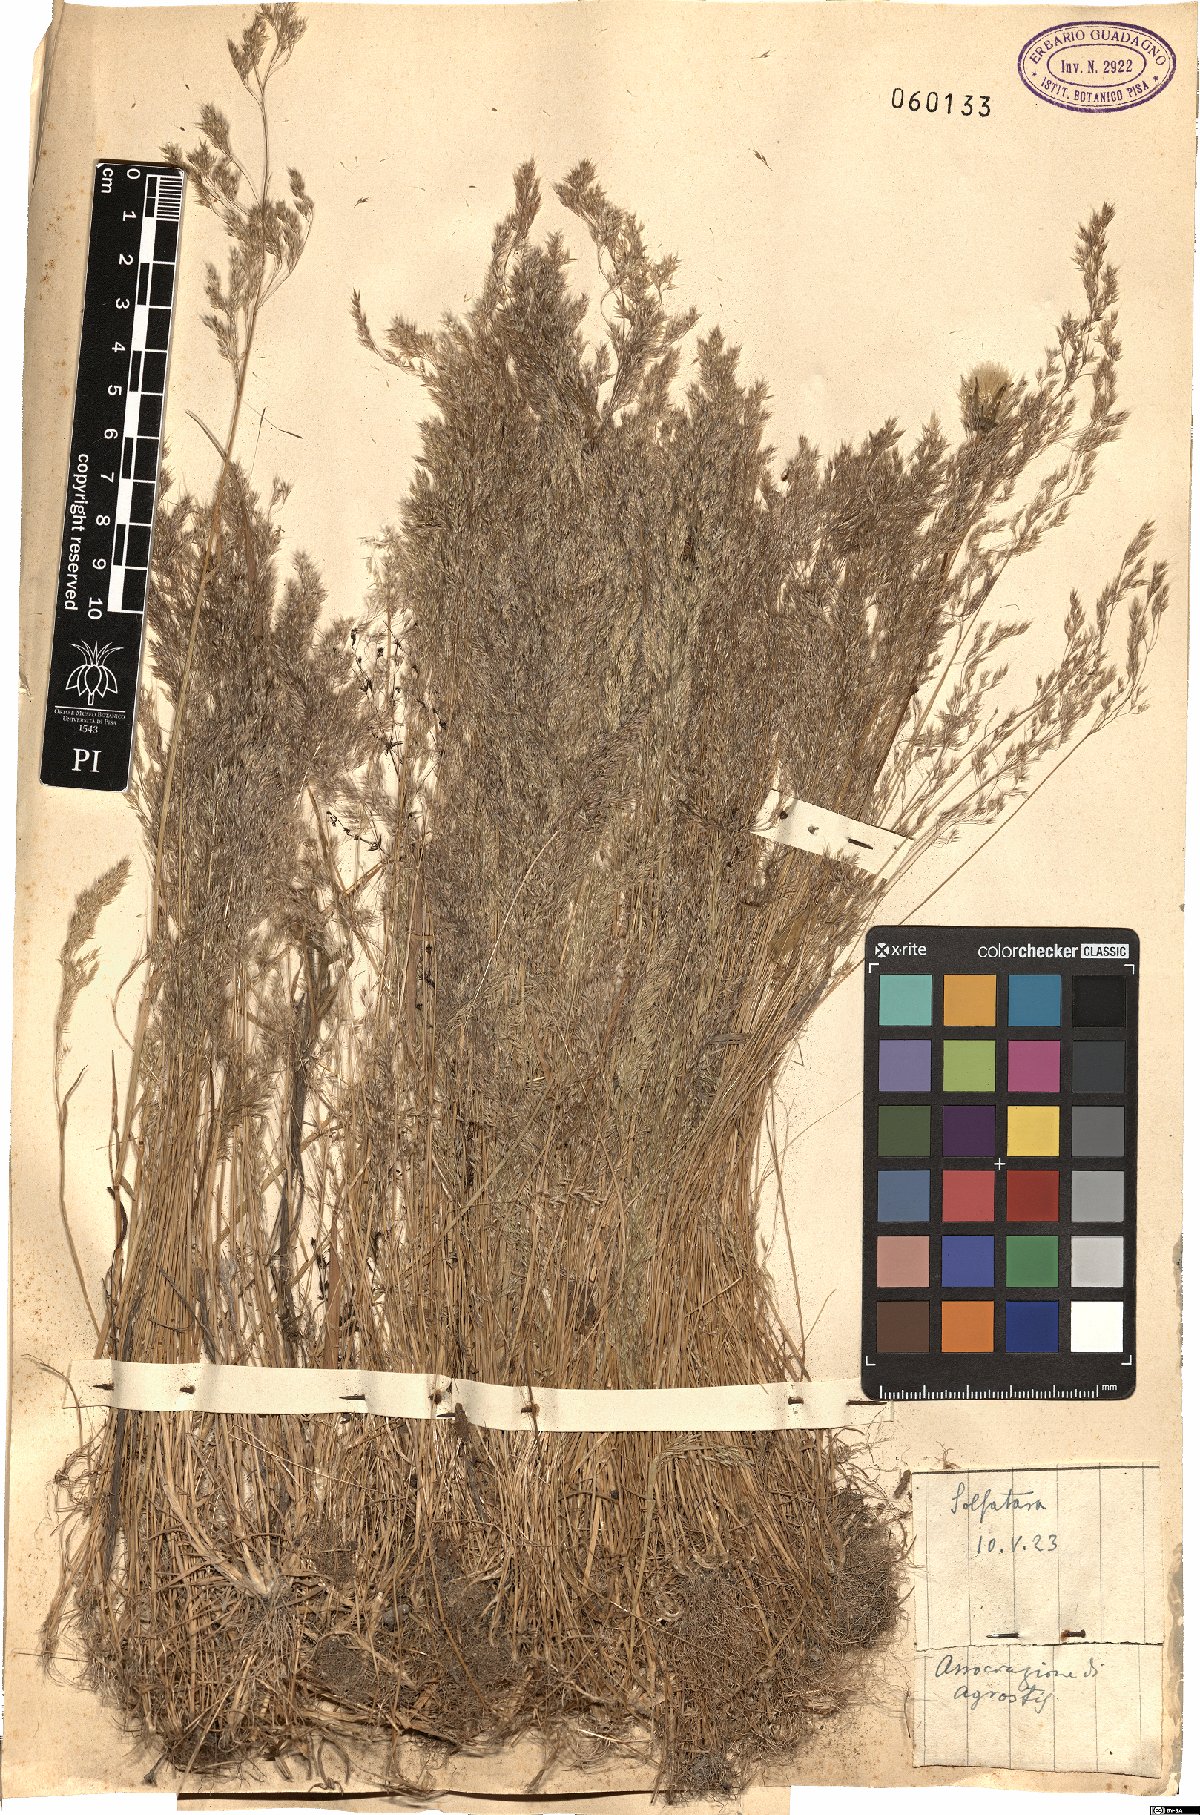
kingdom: Plantae
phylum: Tracheophyta
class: Liliopsida
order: Poales
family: Poaceae
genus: Agrostis
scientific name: Agrostis
